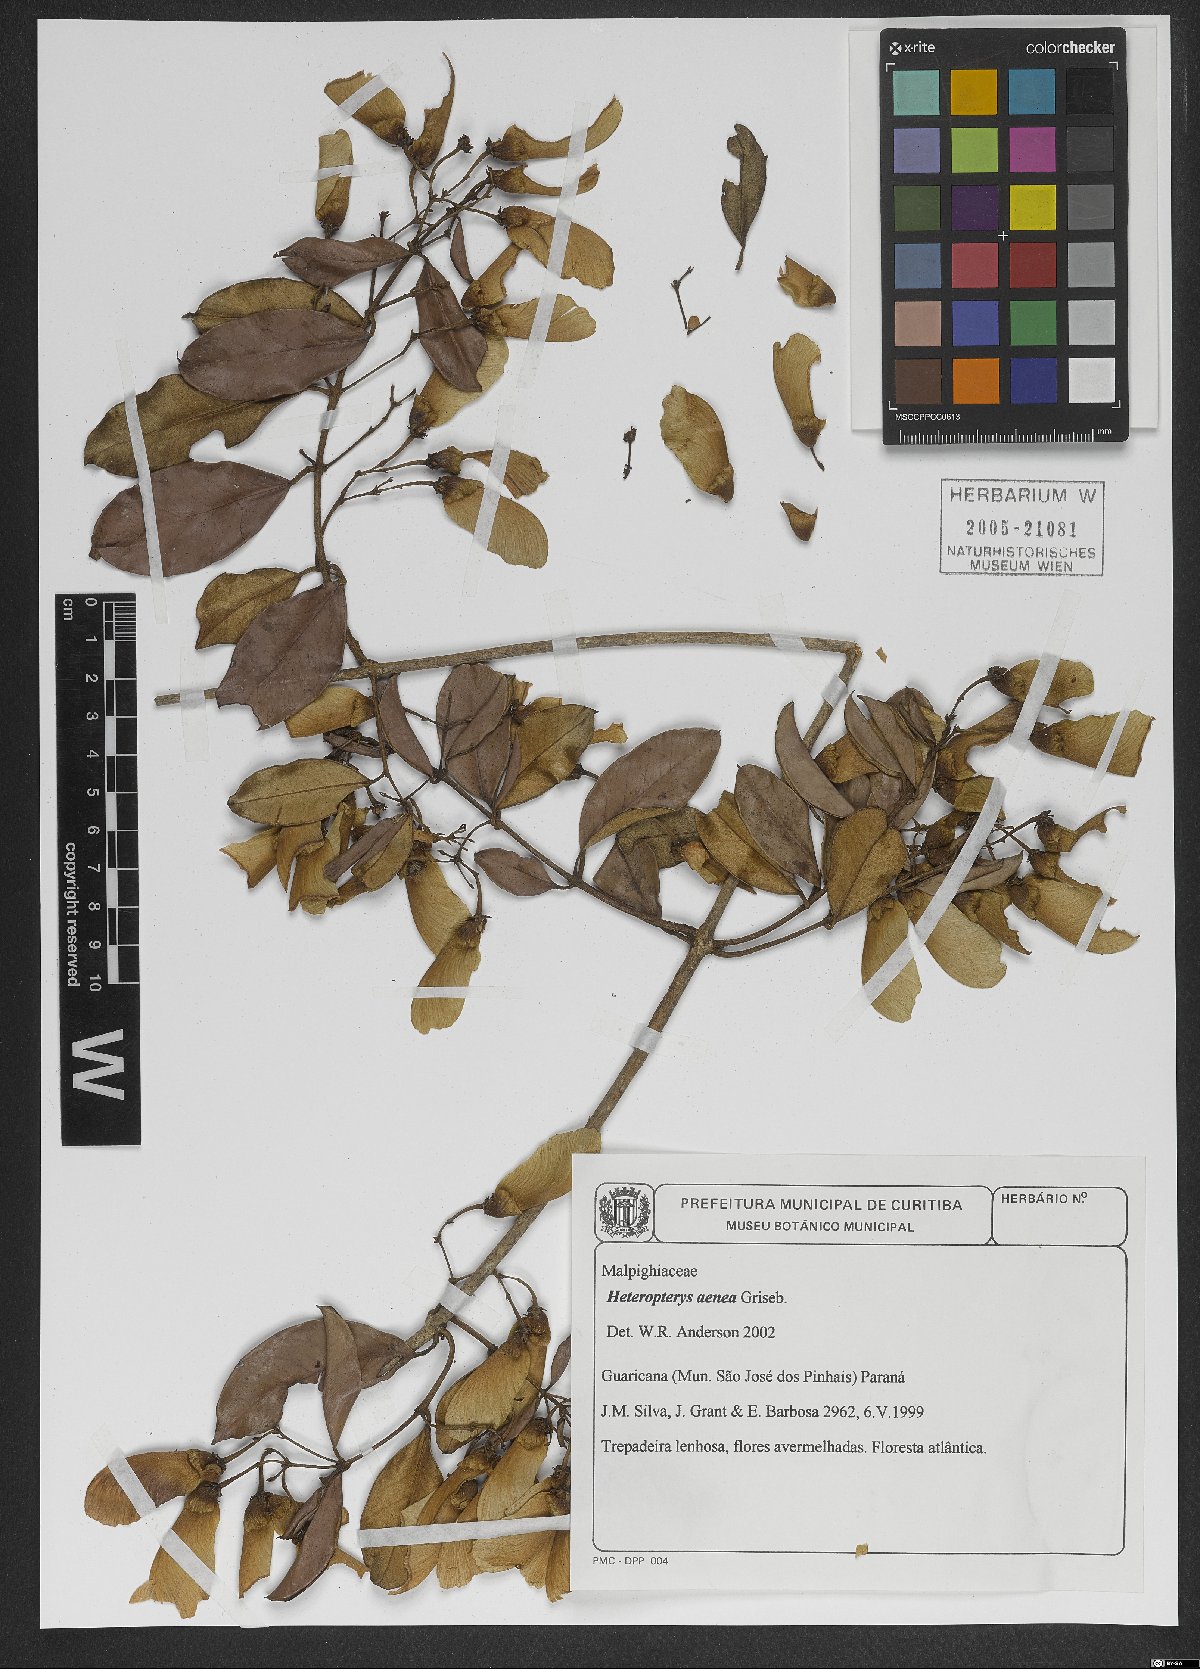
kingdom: Plantae
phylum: Tracheophyta
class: Magnoliopsida
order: Malpighiales
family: Malpighiaceae
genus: Heteropterys
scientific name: Heteropterys aenea
